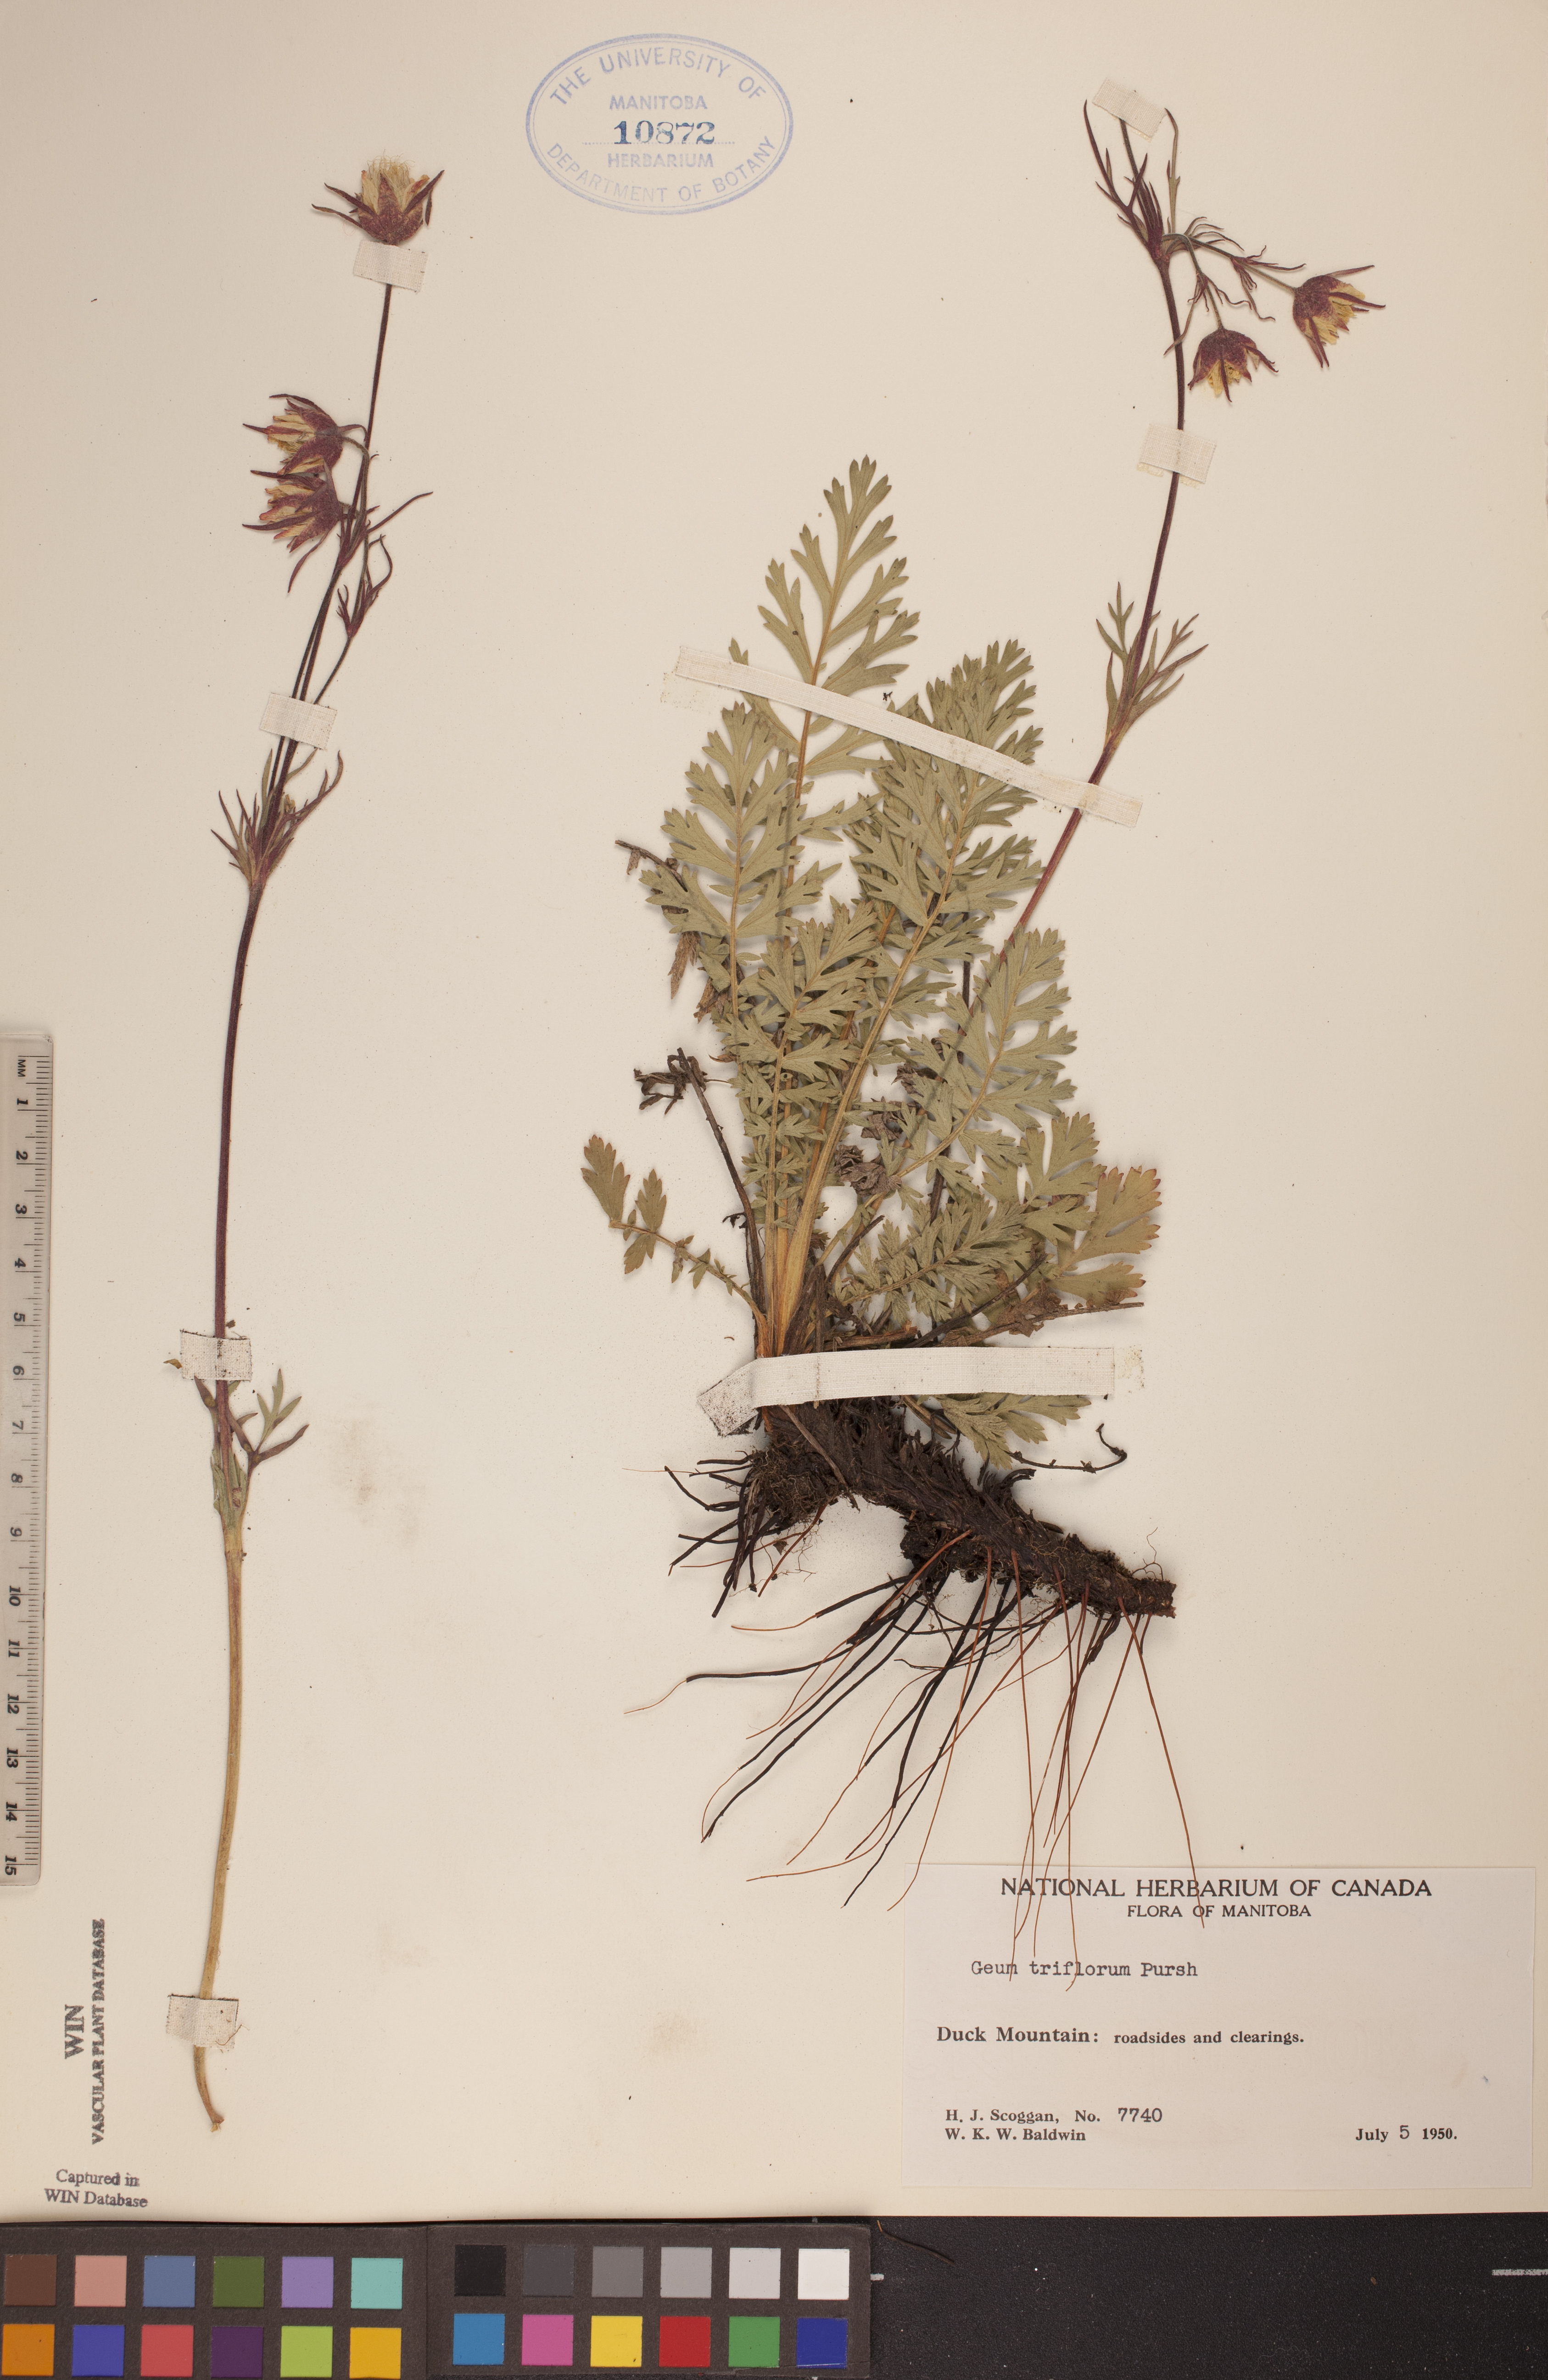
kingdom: Plantae
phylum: Tracheophyta
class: Magnoliopsida
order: Rosales
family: Rosaceae
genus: Geum
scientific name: Geum triflorum
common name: Old man's whiskers
